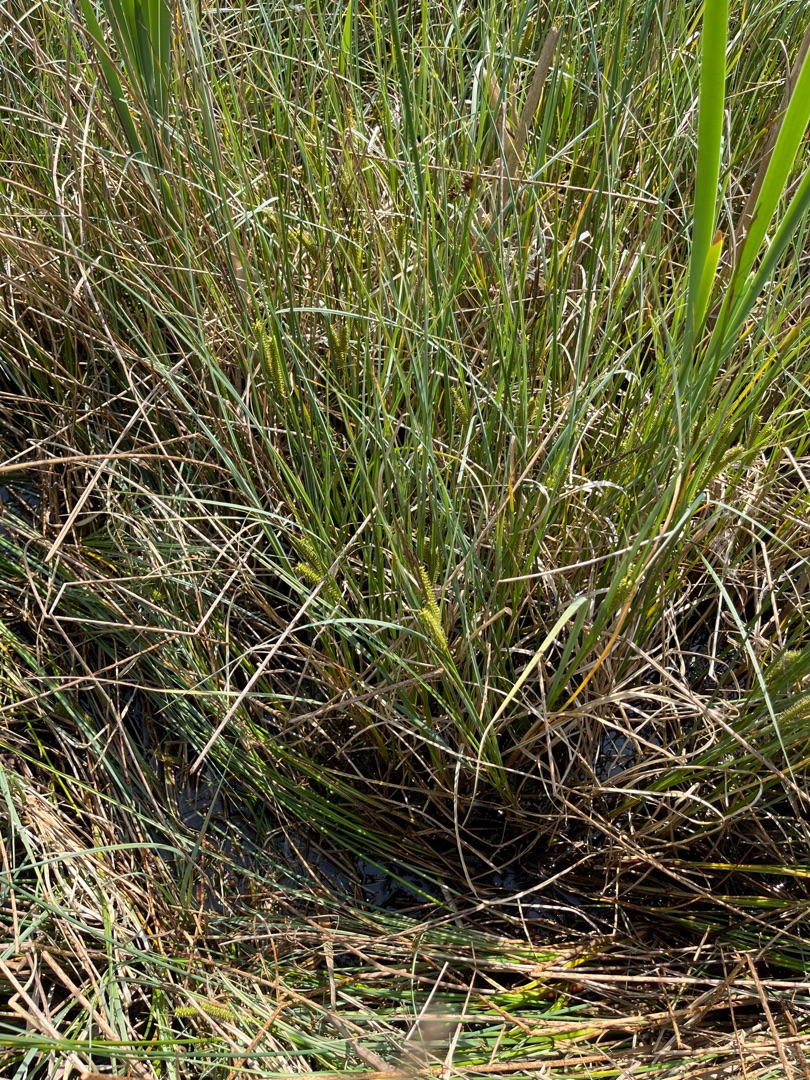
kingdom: Plantae
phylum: Tracheophyta
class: Liliopsida
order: Poales
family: Cyperaceae
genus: Carex
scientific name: Carex rostrata
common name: Næb-star
